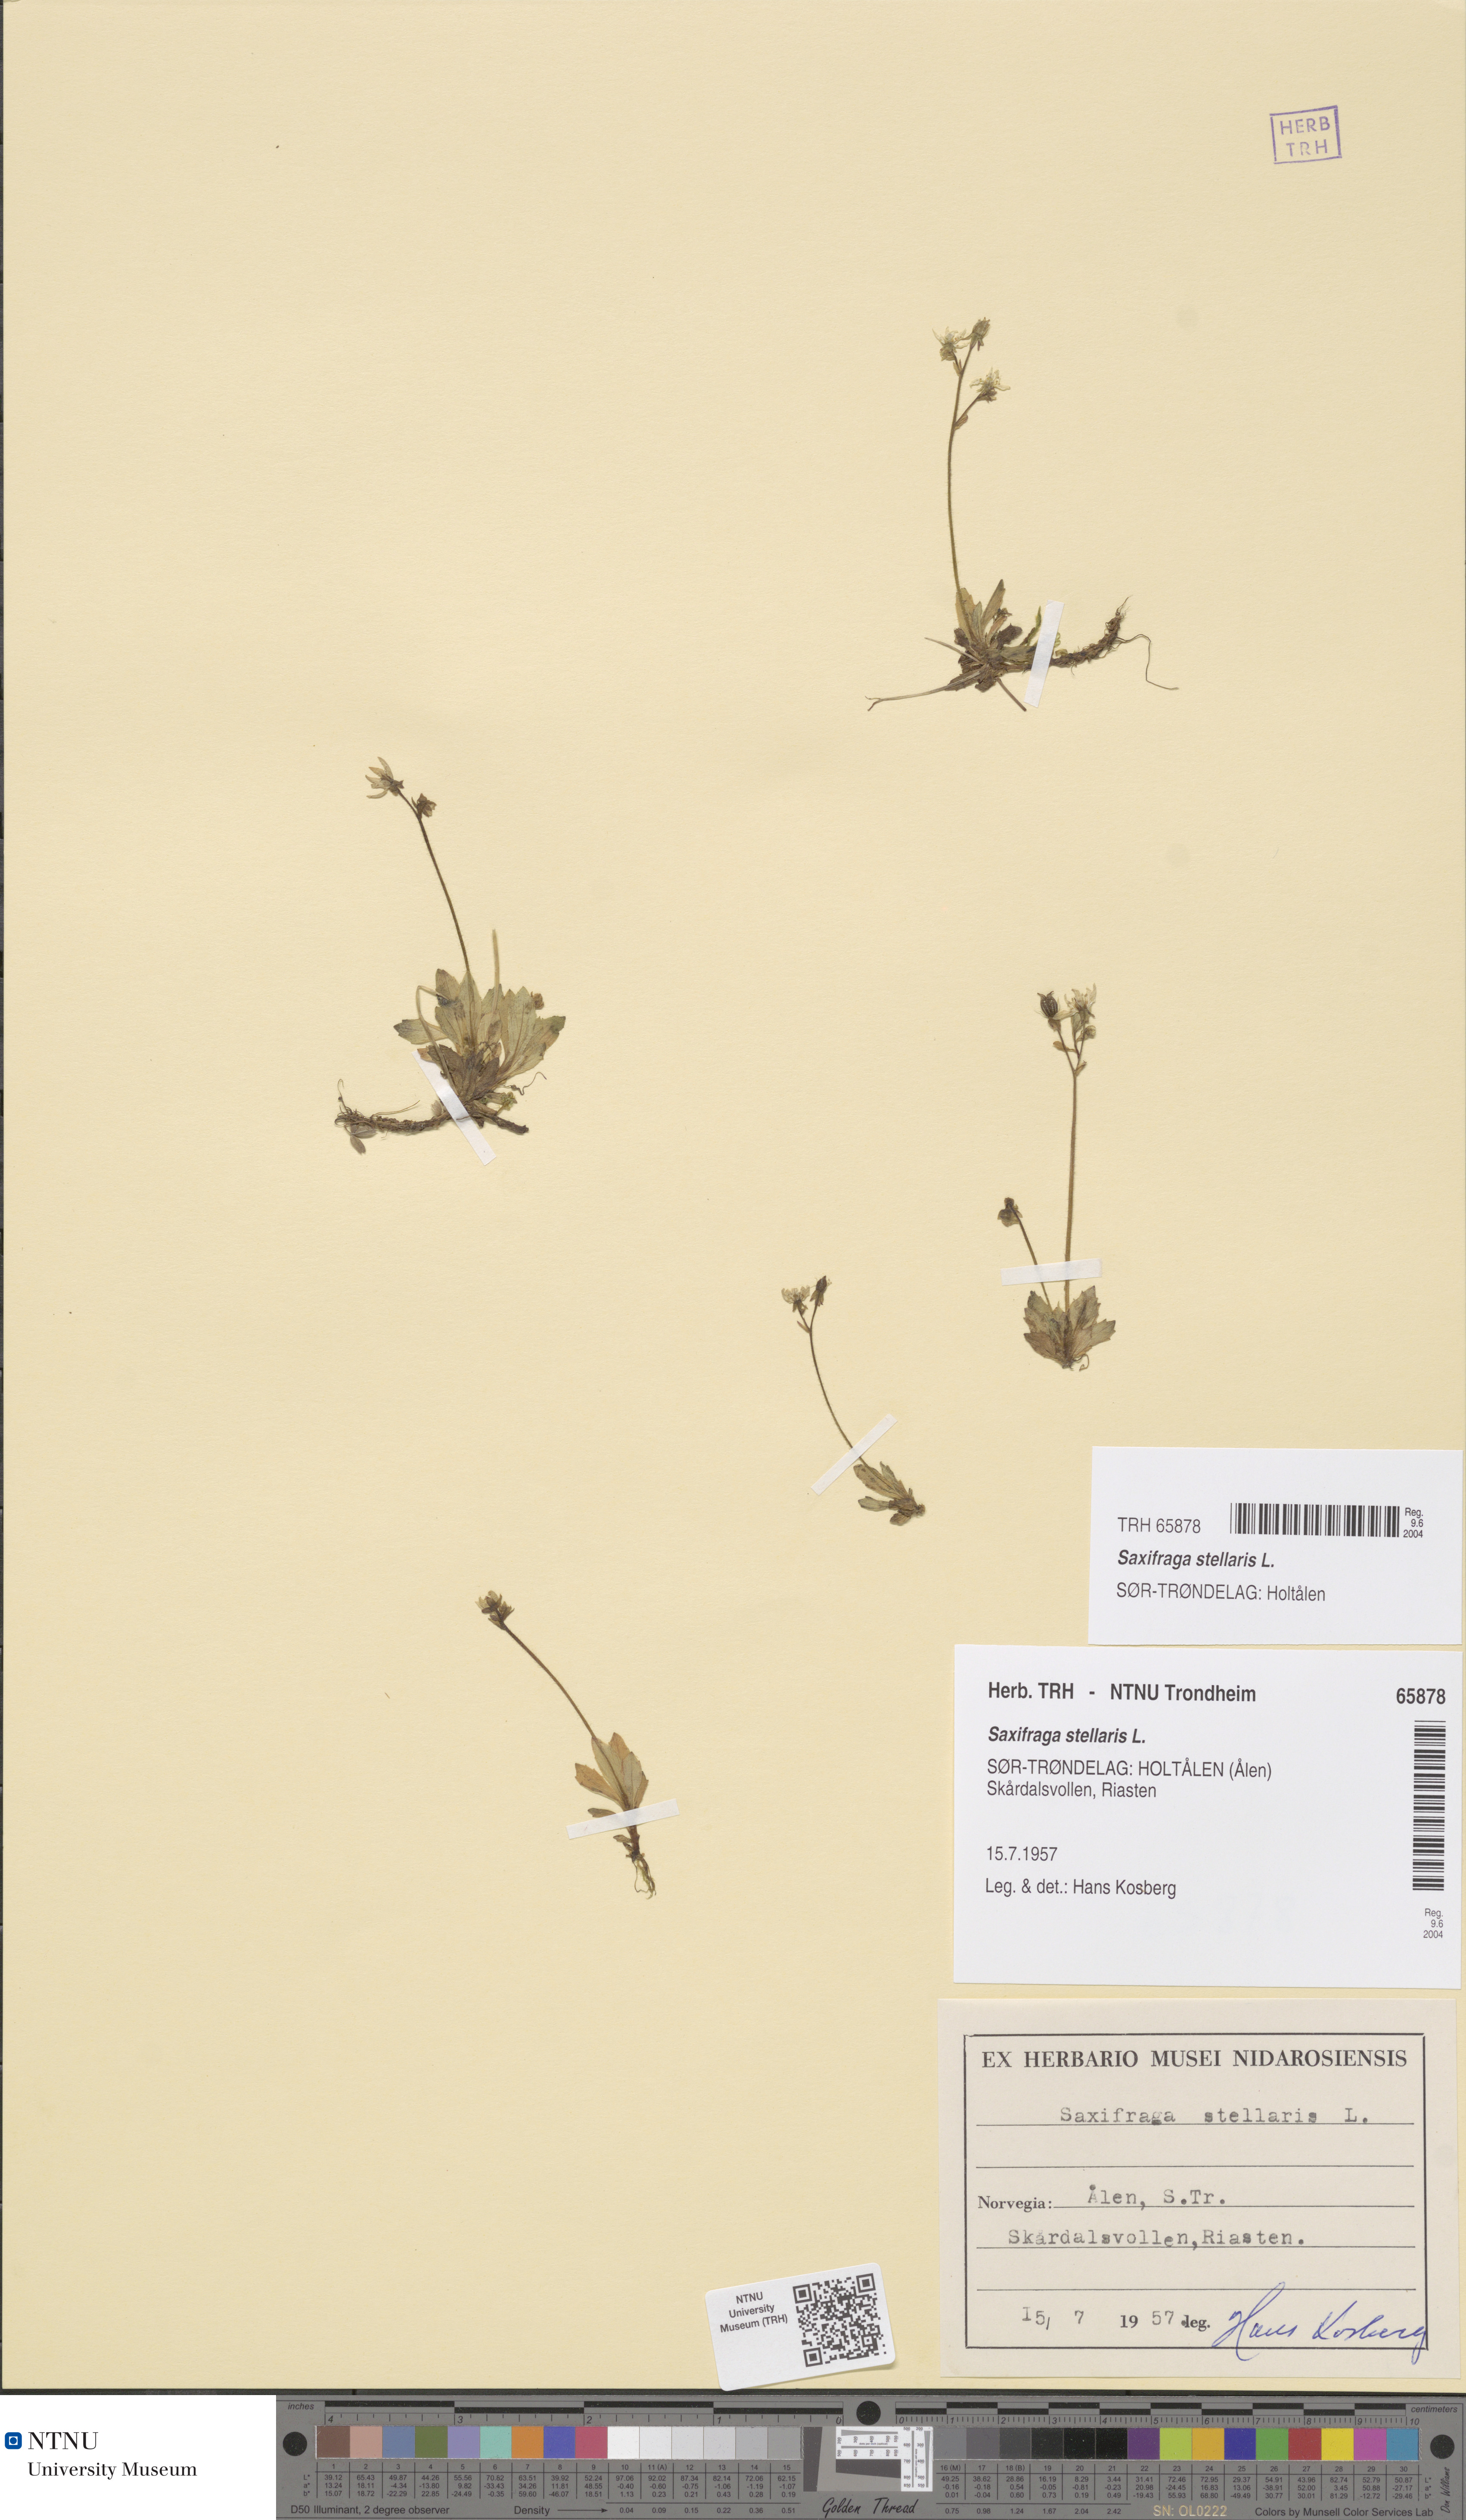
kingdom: Plantae
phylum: Tracheophyta
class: Magnoliopsida
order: Saxifragales
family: Saxifragaceae
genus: Micranthes
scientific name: Micranthes stellaris
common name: Starry saxifrage
